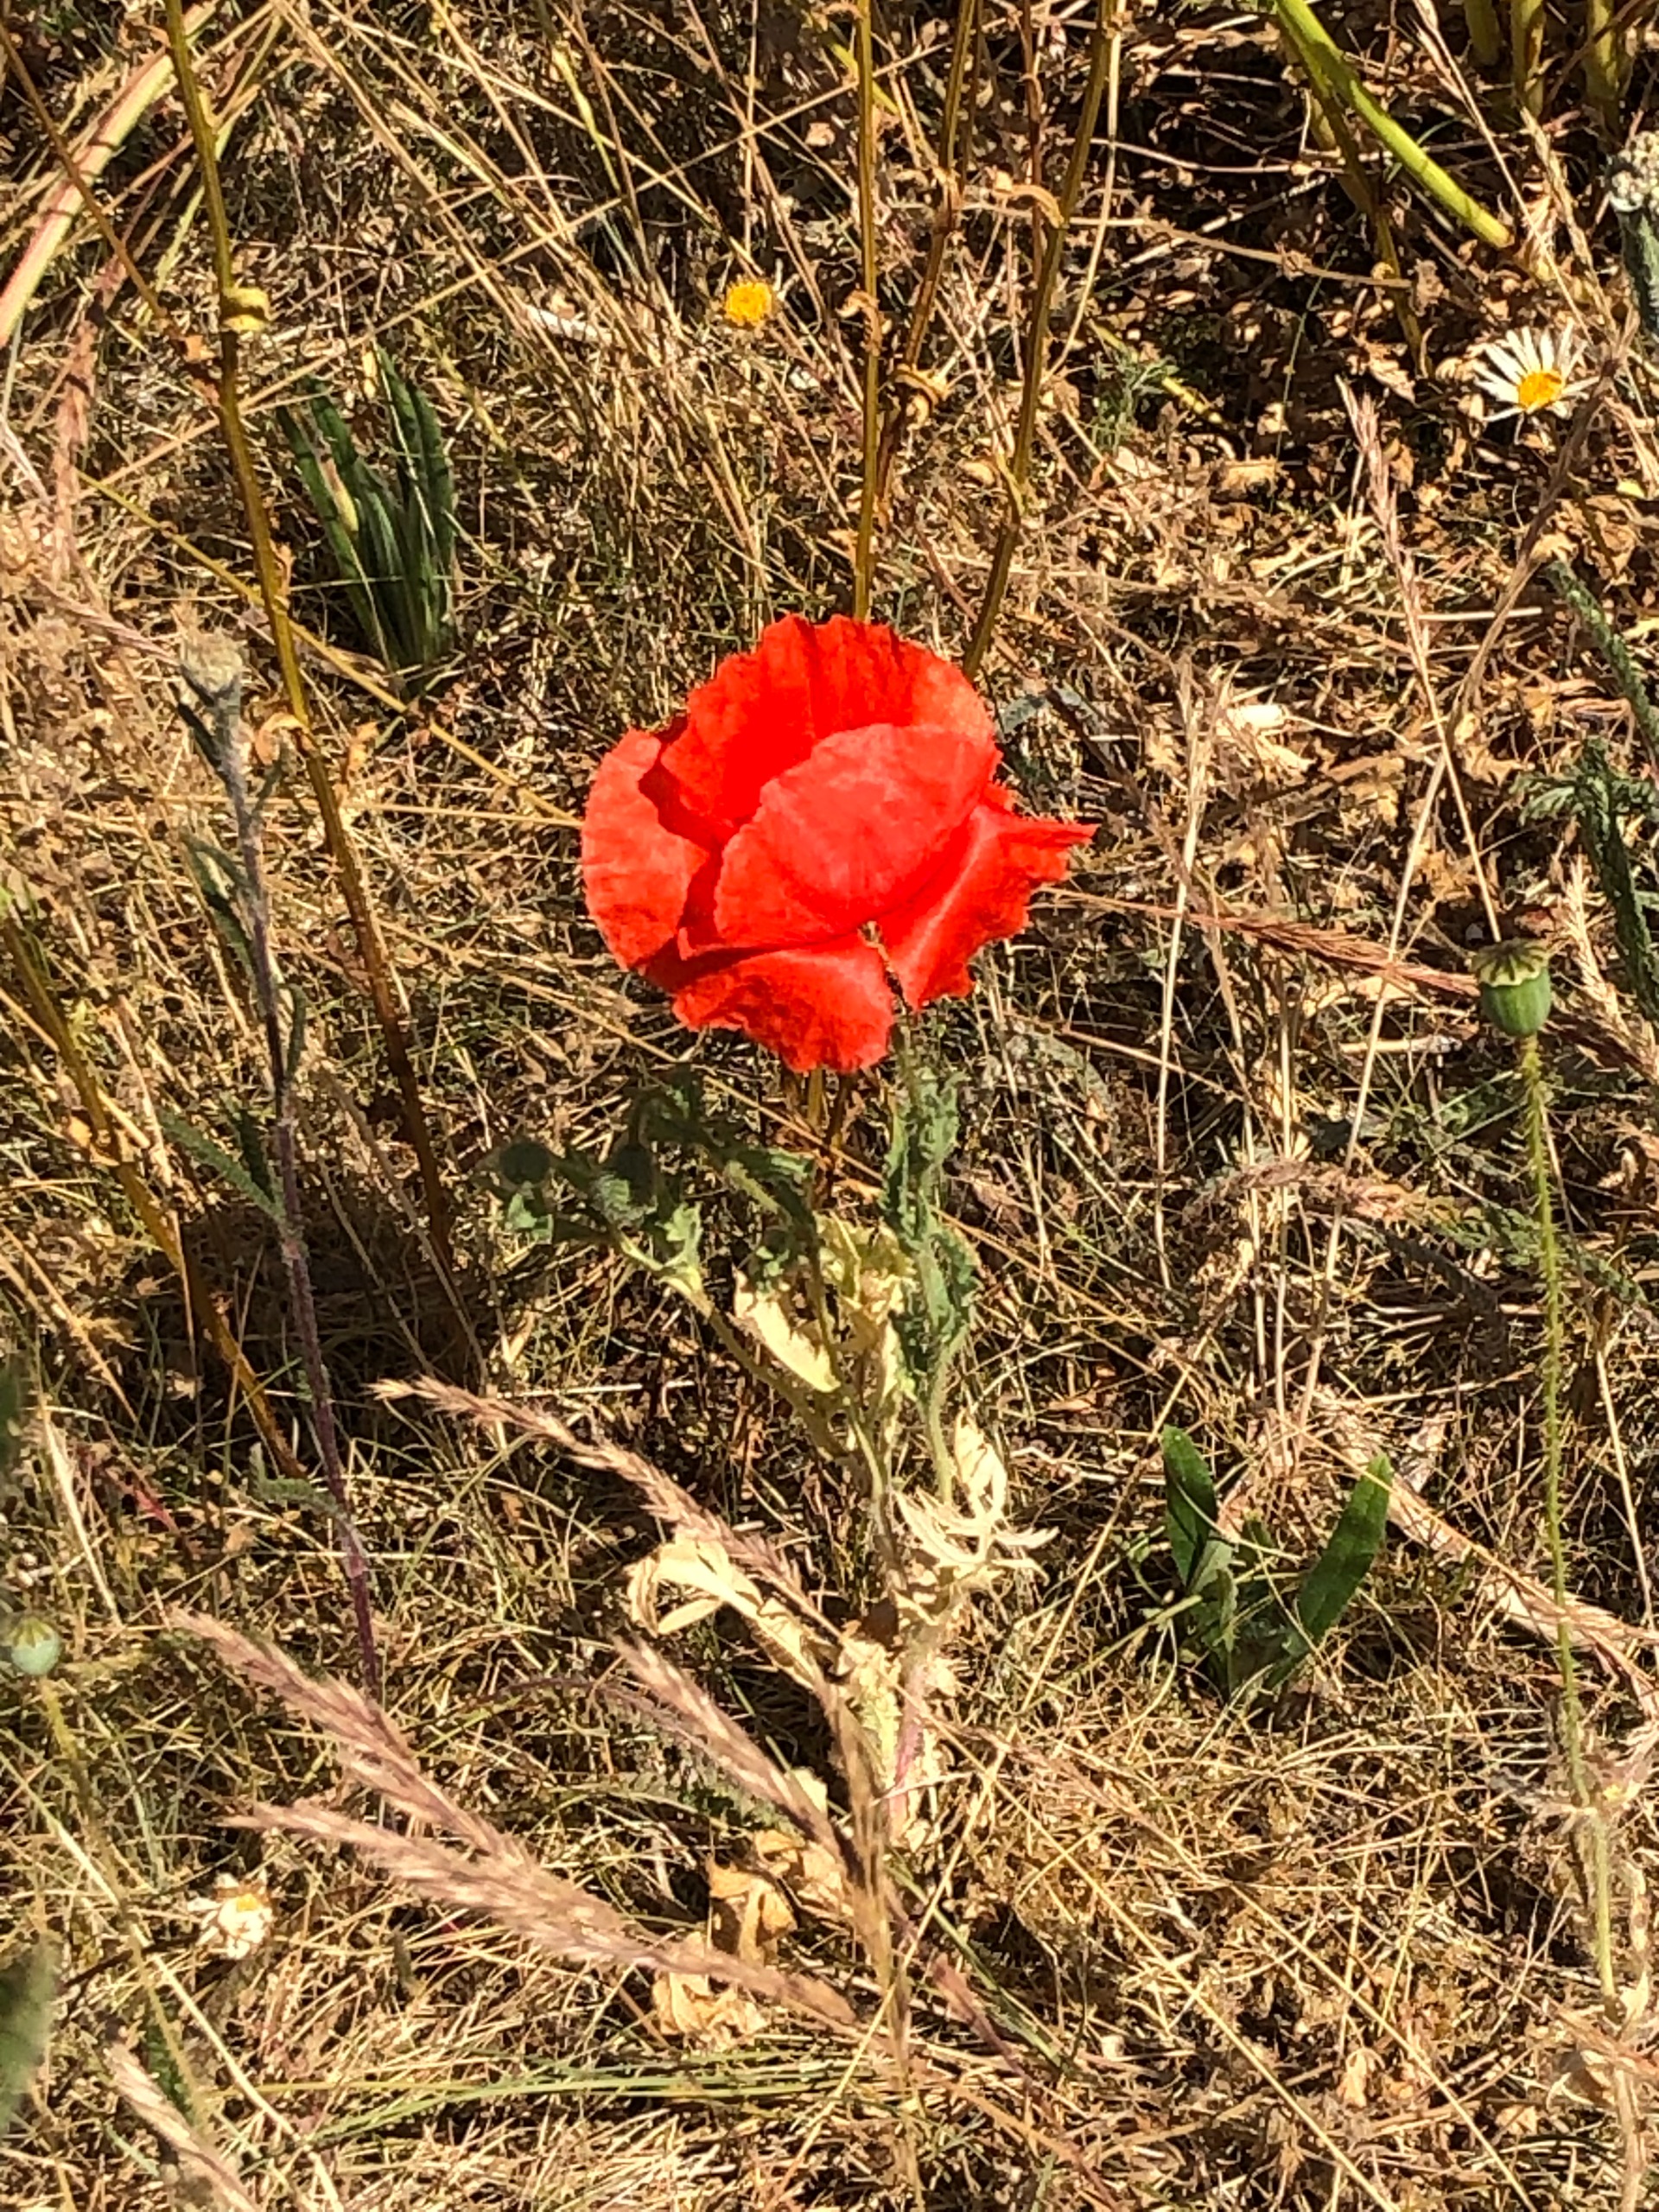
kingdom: Plantae
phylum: Tracheophyta
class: Magnoliopsida
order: Ranunculales
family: Papaveraceae
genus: Papaver
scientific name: Papaver rhoeas
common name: Korn-valmue
